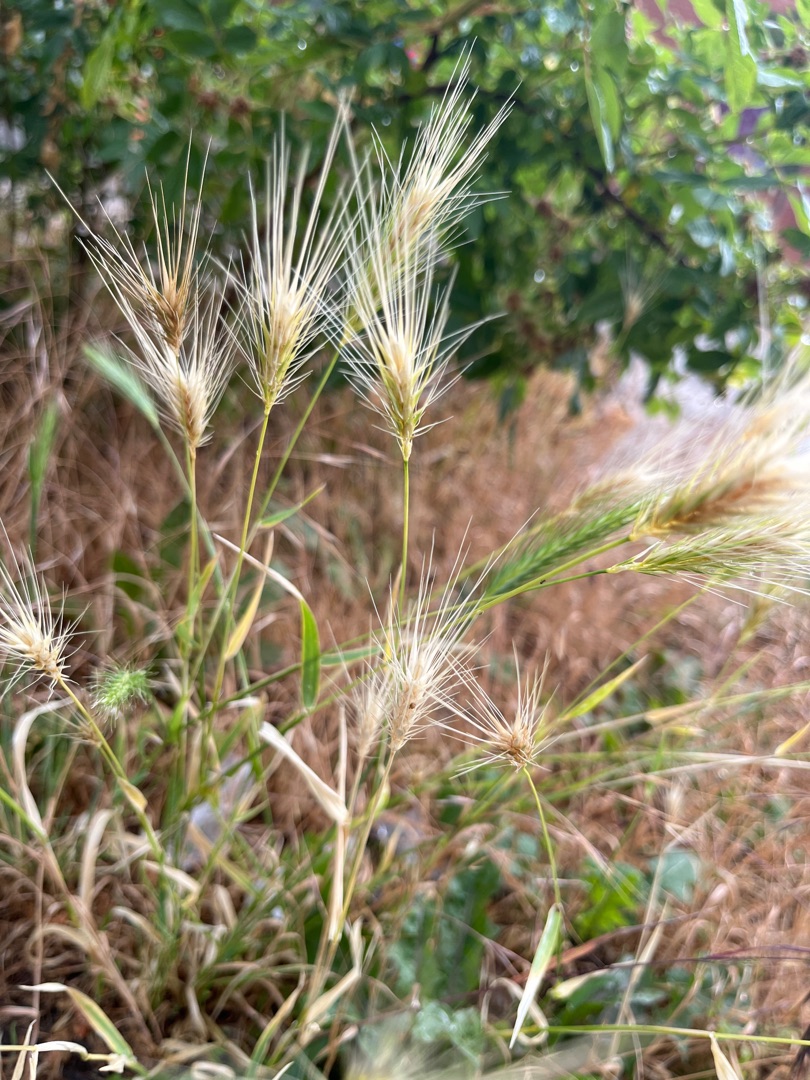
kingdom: Plantae
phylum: Tracheophyta
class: Liliopsida
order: Poales
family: Poaceae
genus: Hordeum
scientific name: Hordeum murinum
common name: Gold byg
